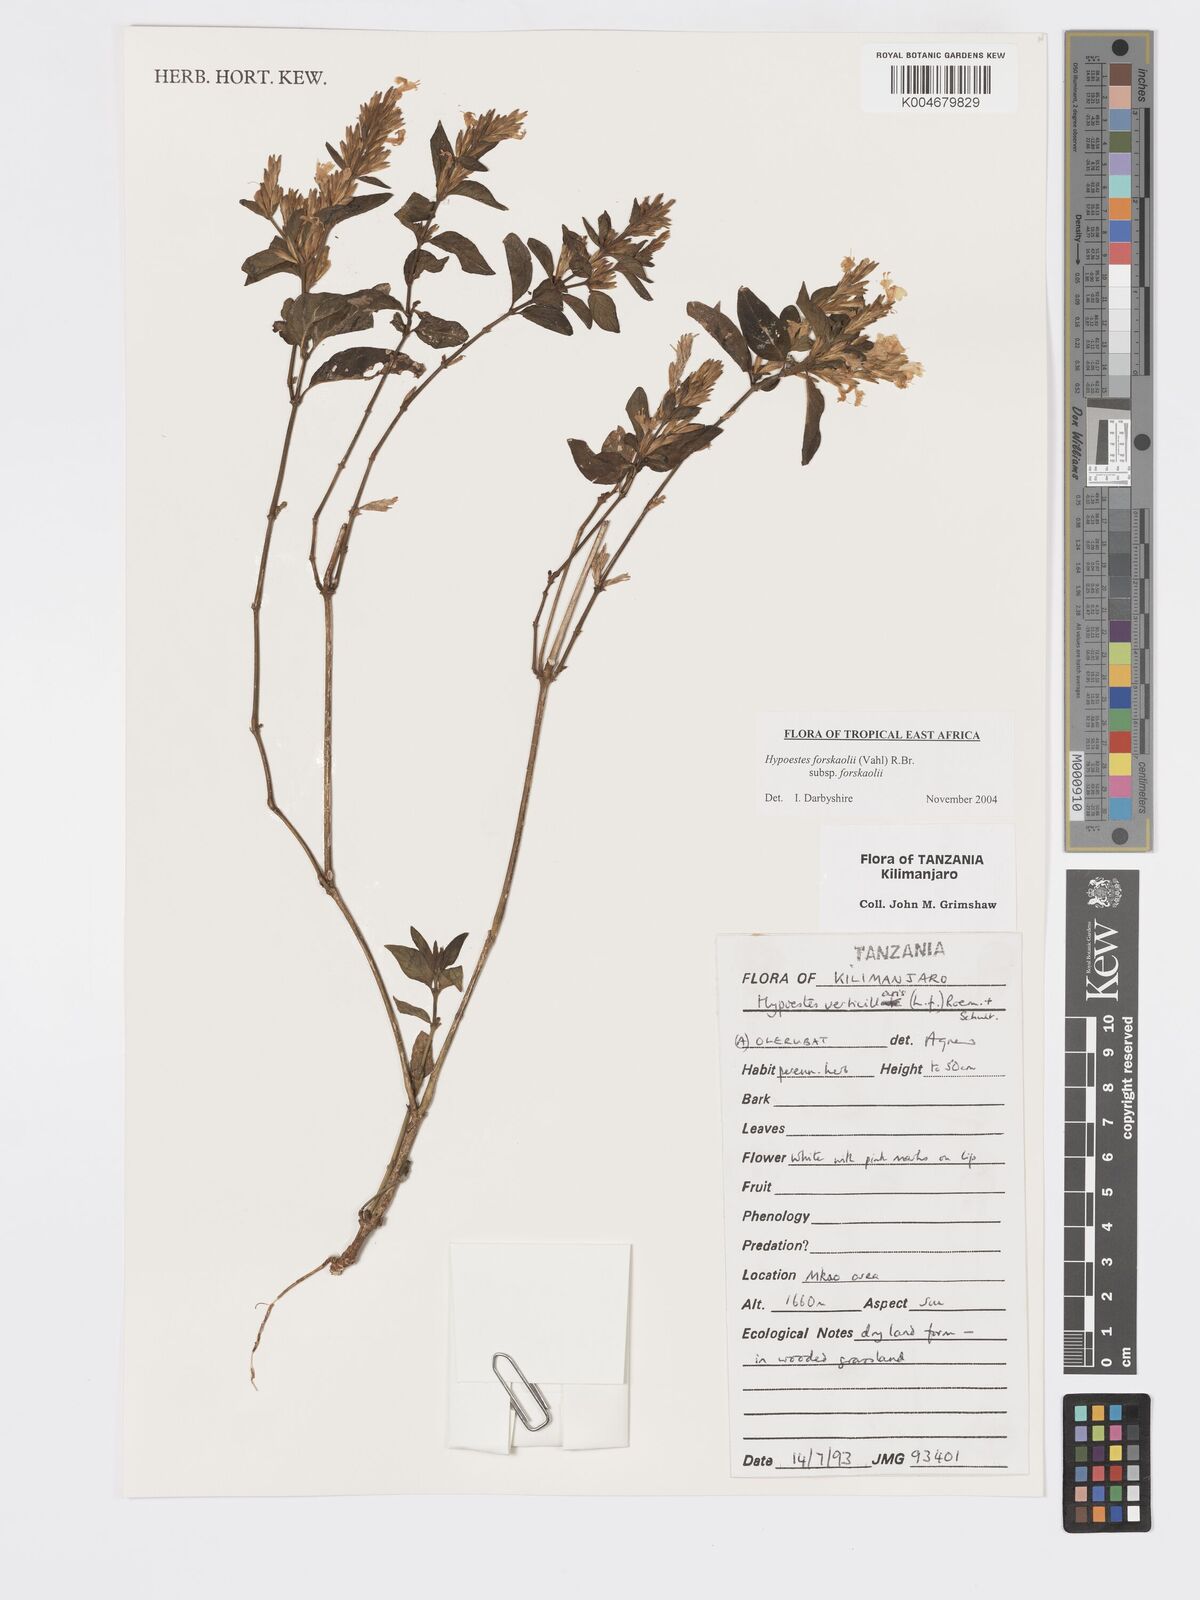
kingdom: Plantae
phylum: Tracheophyta
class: Magnoliopsida
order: Lamiales
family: Acanthaceae
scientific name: Acanthaceae
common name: Acanthaceae
